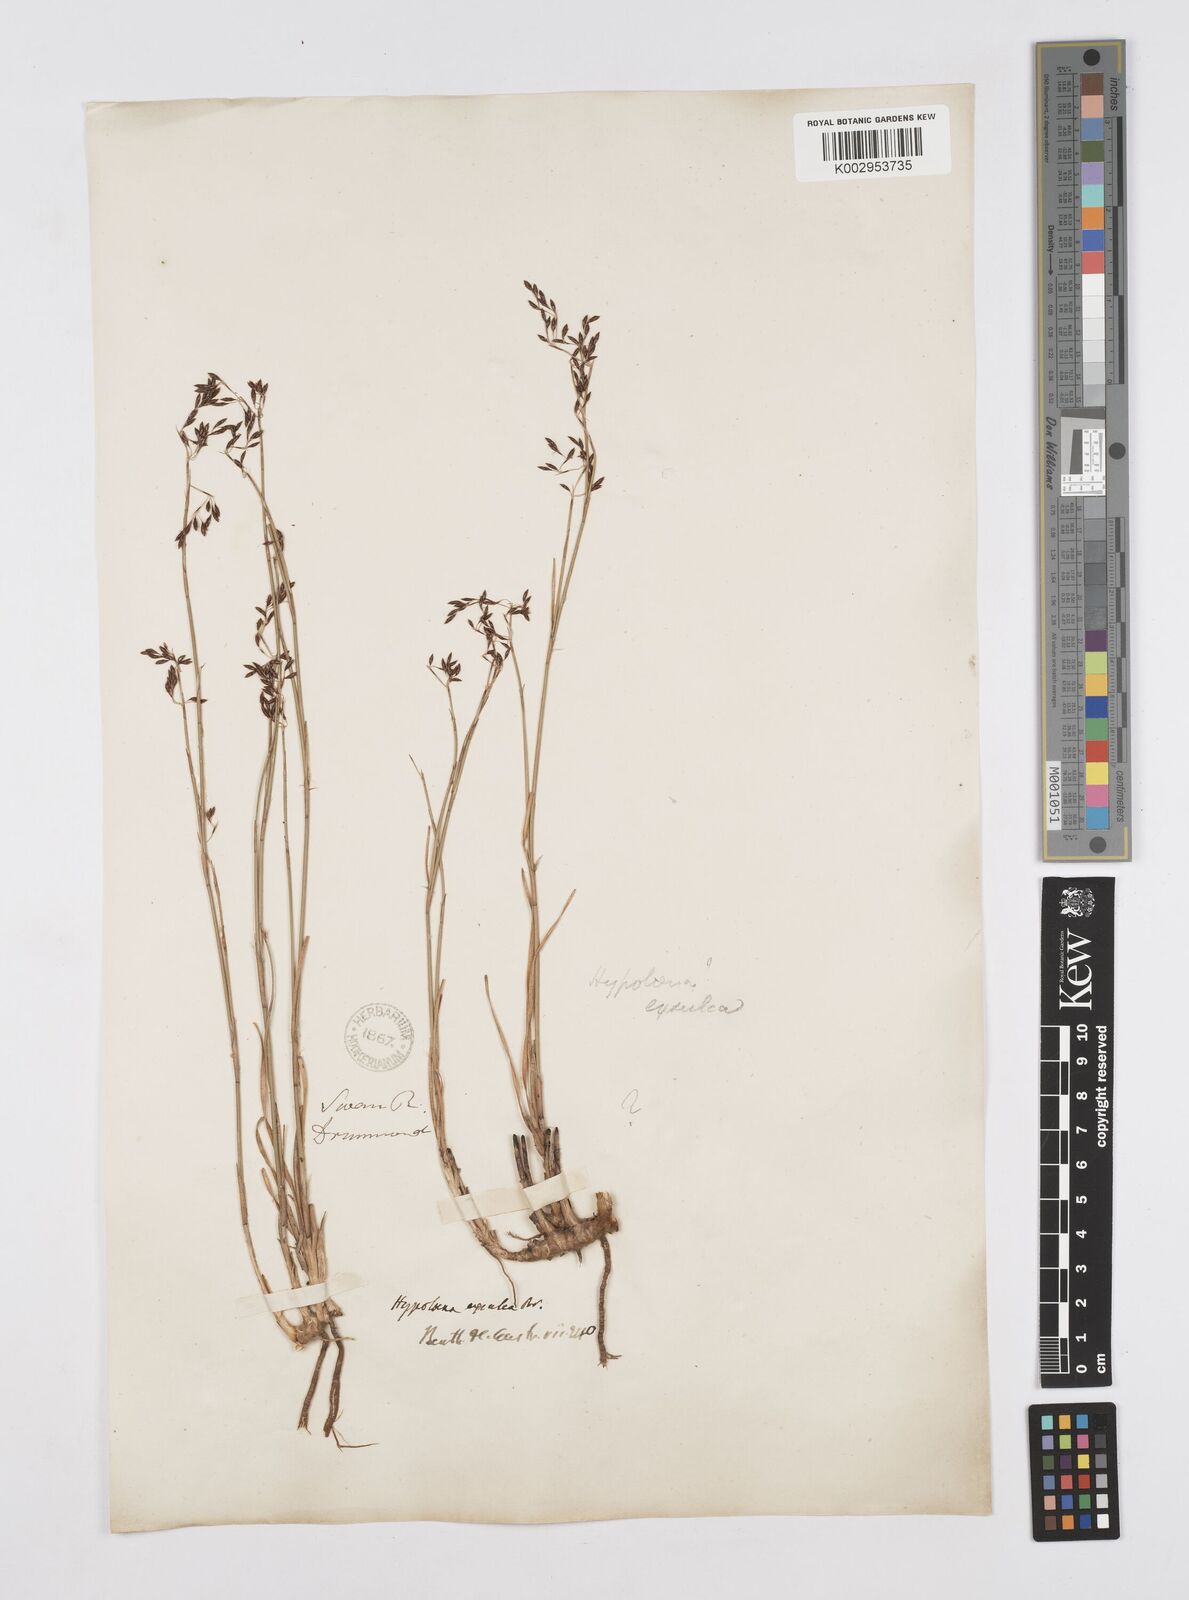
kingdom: Plantae
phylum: Tracheophyta
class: Liliopsida
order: Poales
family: Restionaceae
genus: Hypolaena
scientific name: Hypolaena exsulca
